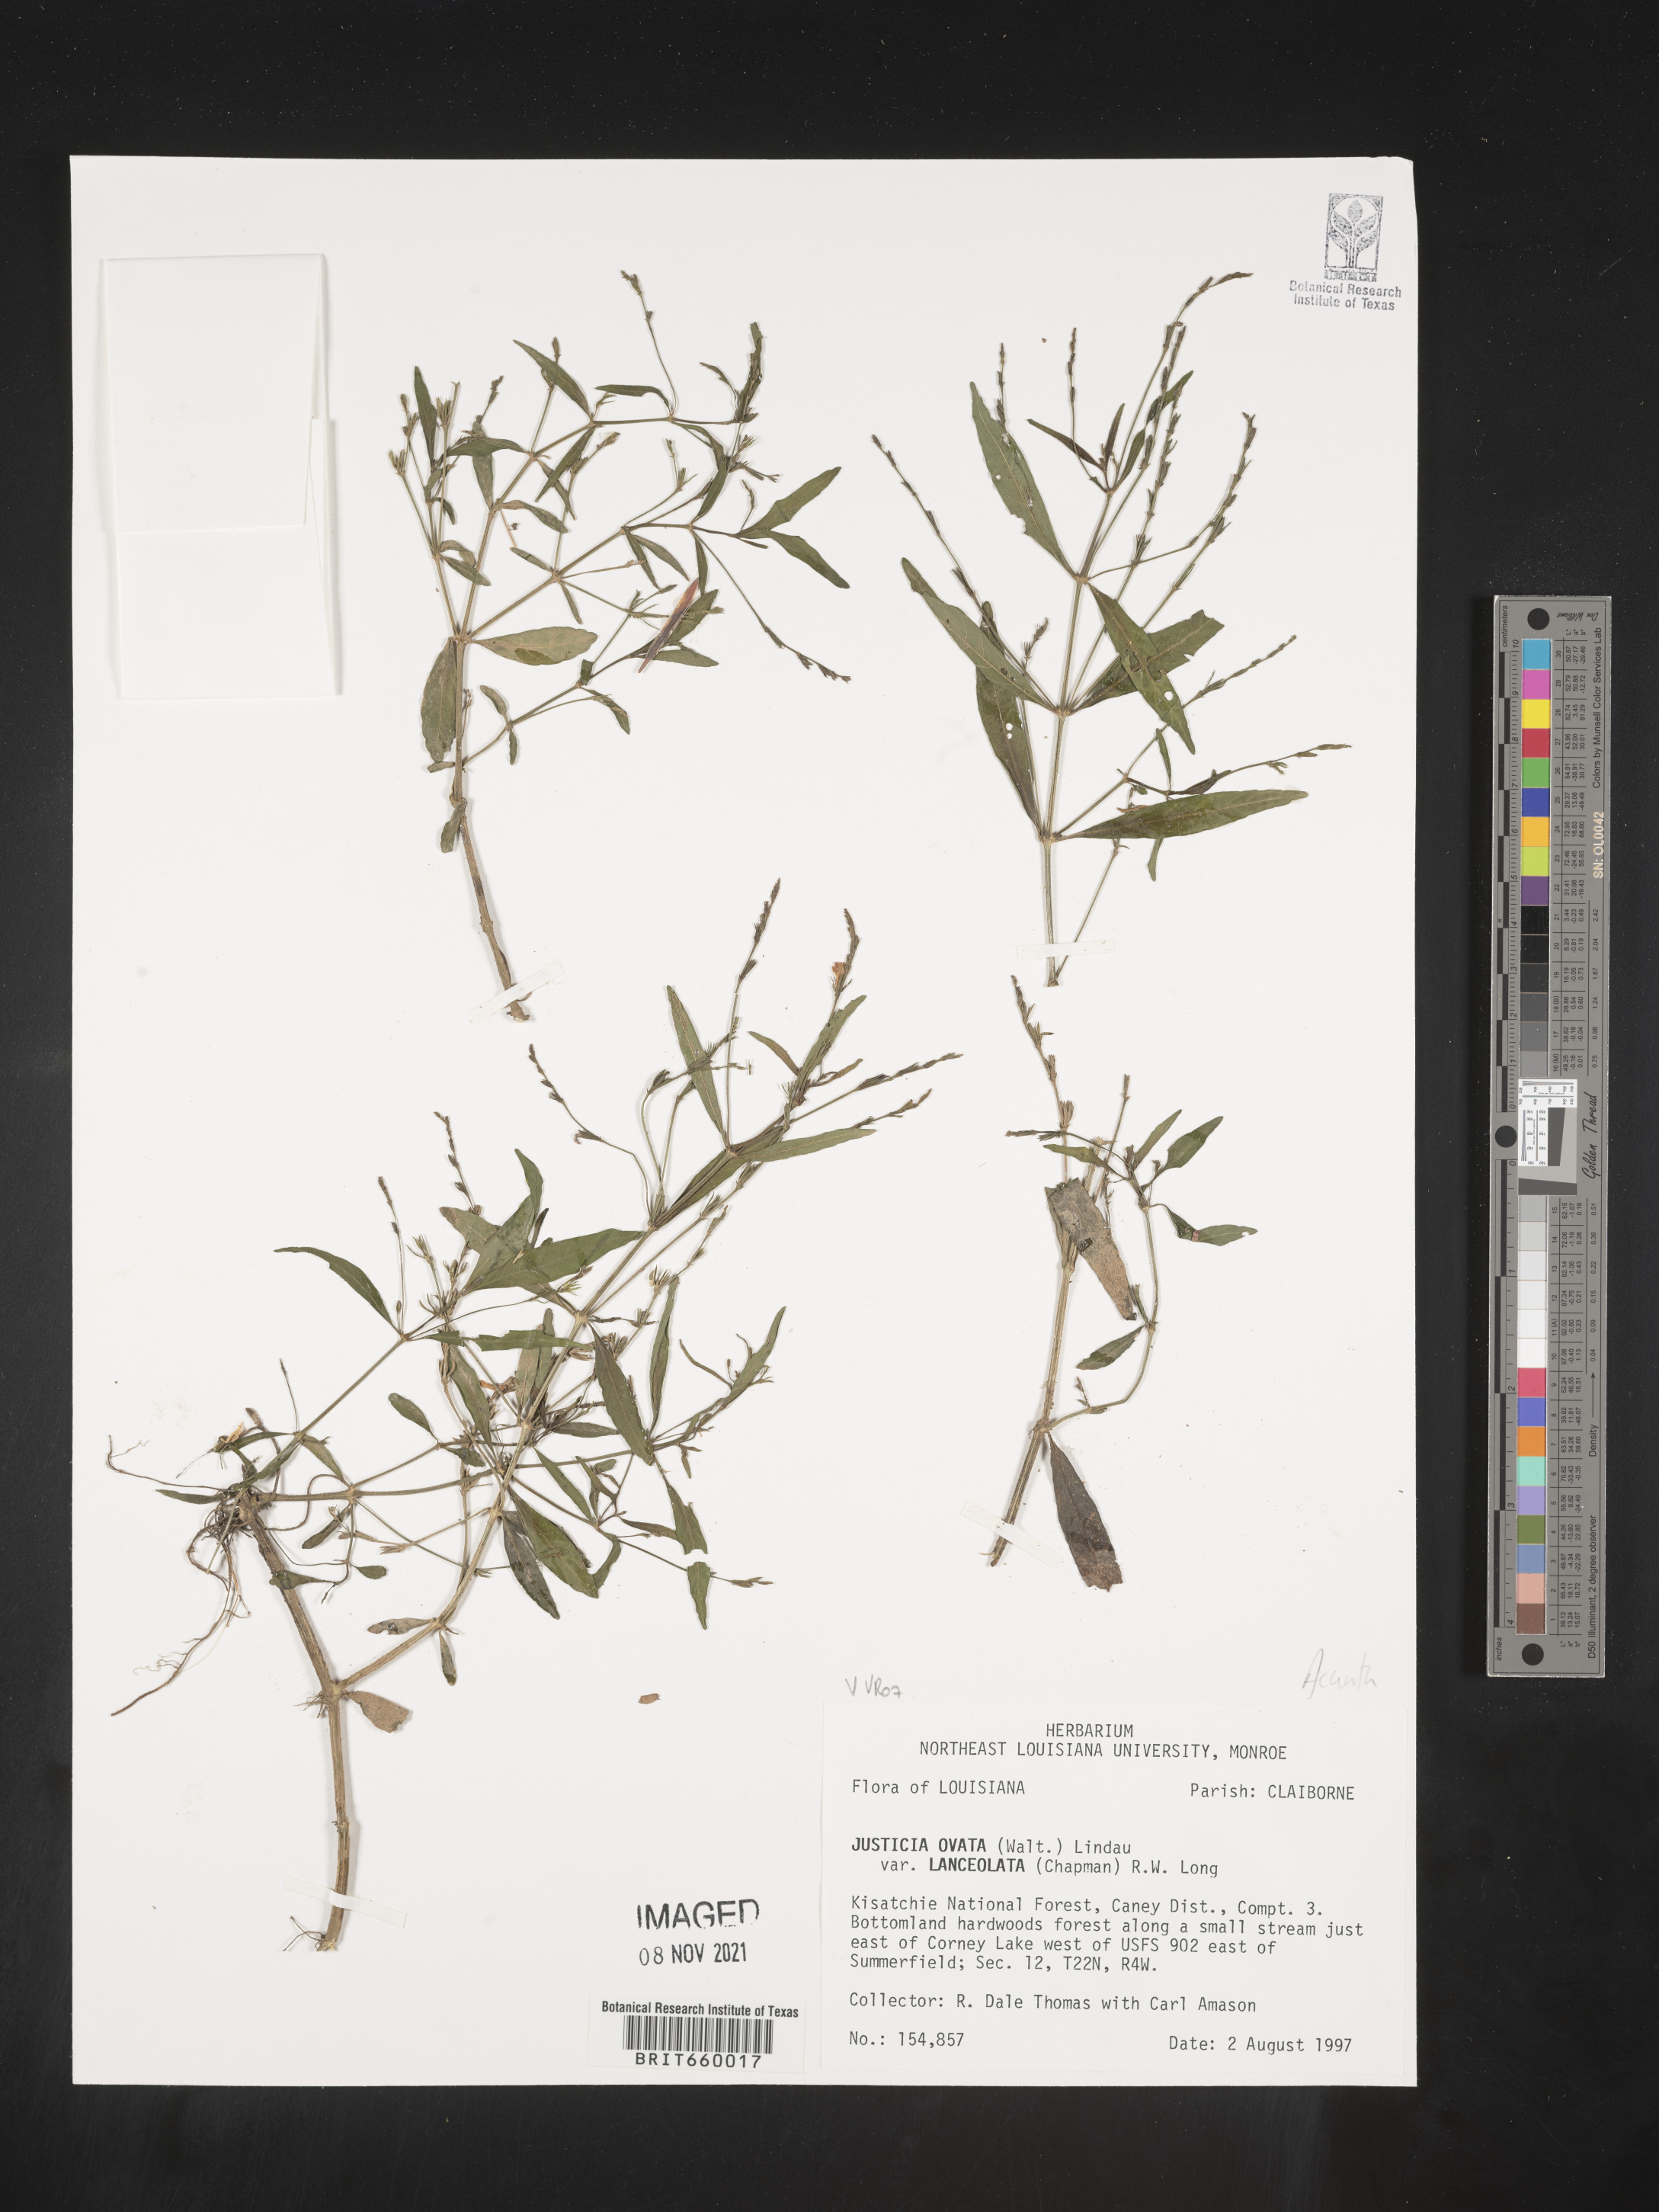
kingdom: Plantae
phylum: Tracheophyta
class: Magnoliopsida
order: Lamiales
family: Acanthaceae
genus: Justicia
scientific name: Justicia lanceolata
